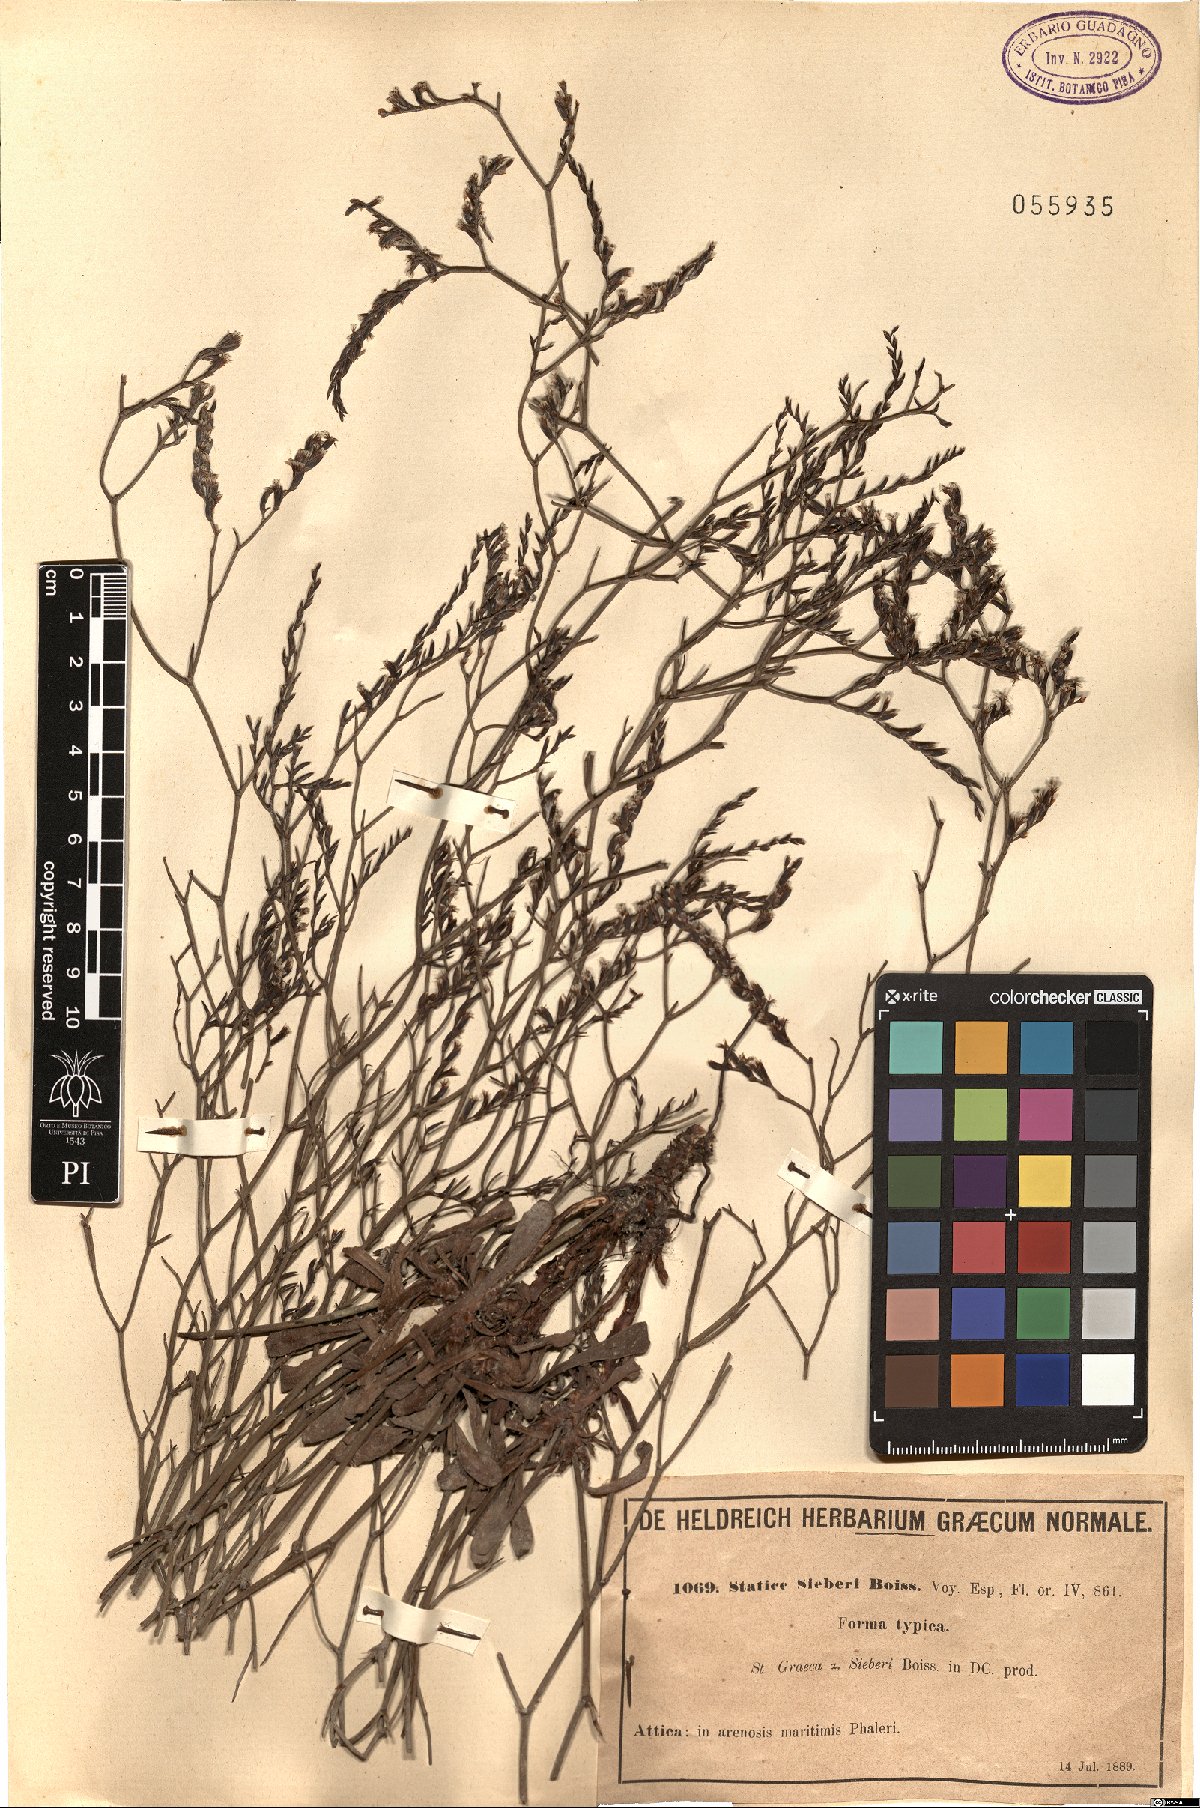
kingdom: Plantae
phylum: Tracheophyta
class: Magnoliopsida
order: Caryophyllales
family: Plumbaginaceae
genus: Limonium
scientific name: Limonium sieberi
